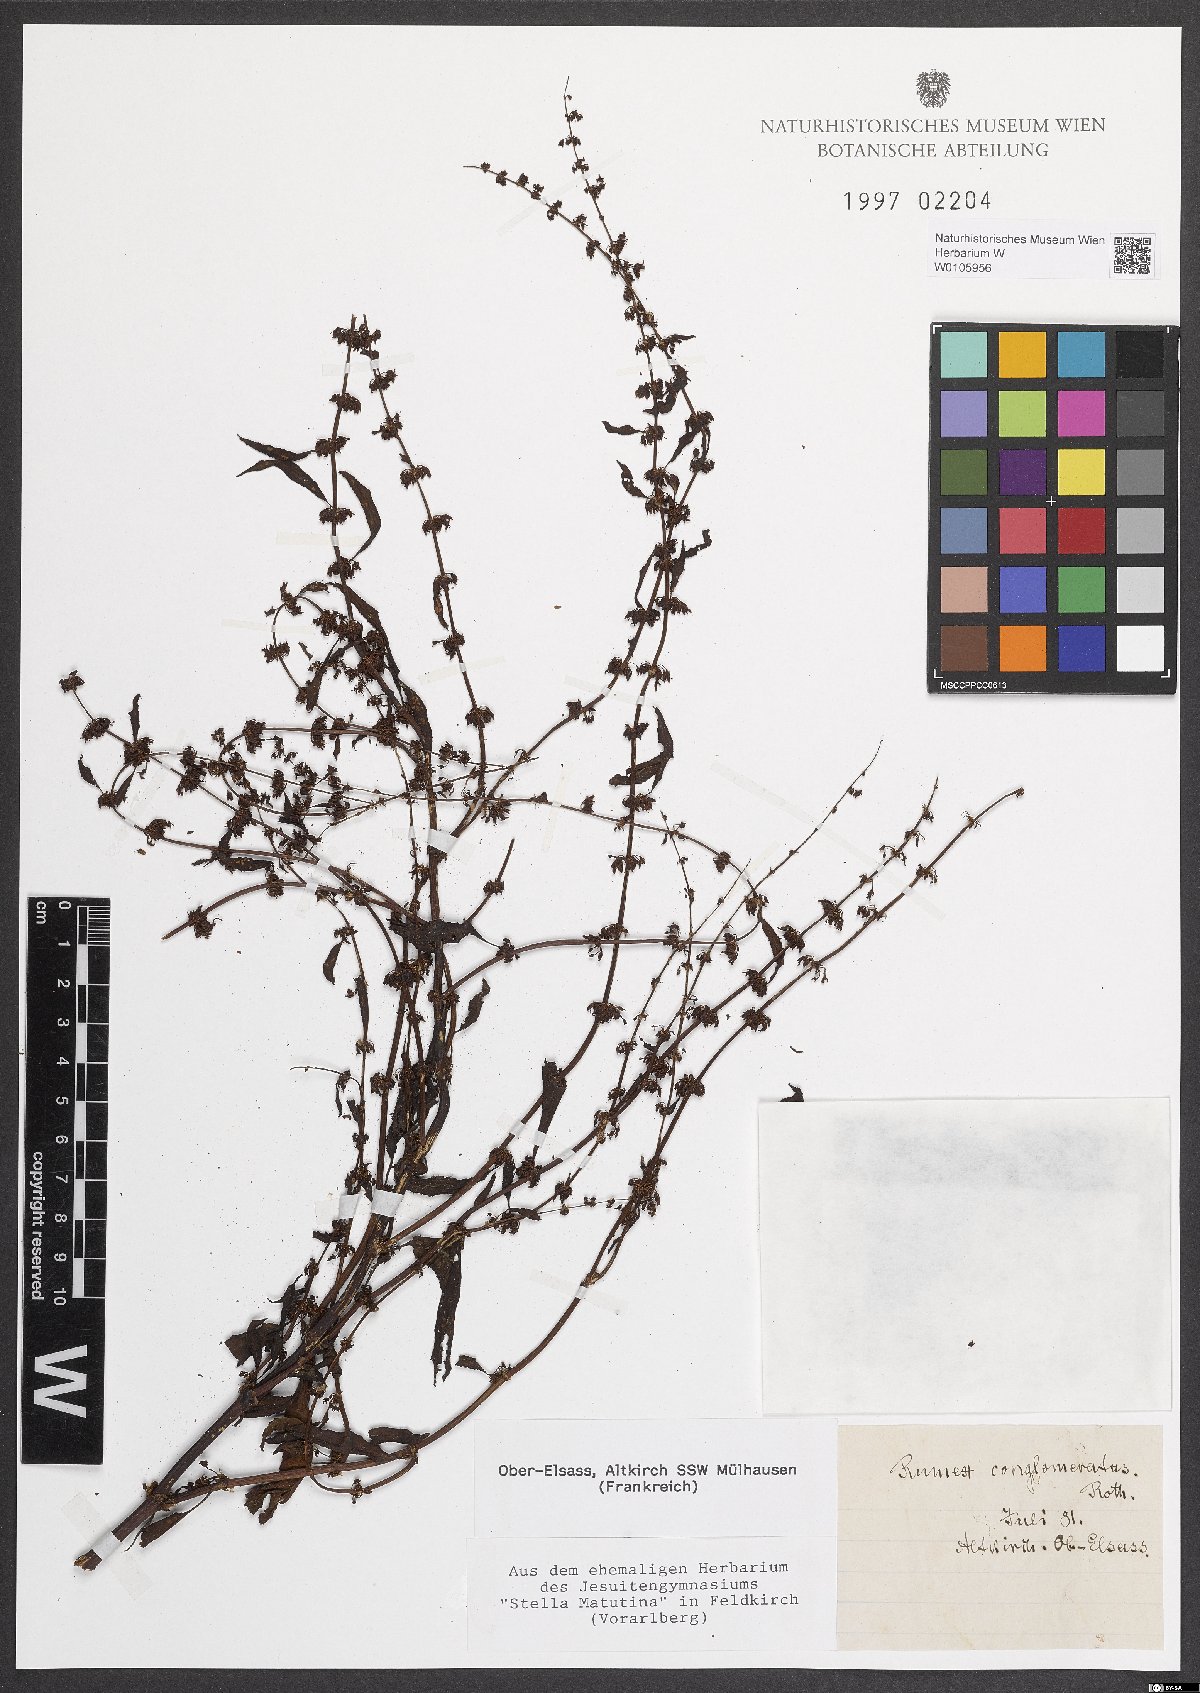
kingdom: Plantae
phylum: Tracheophyta
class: Magnoliopsida
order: Caryophyllales
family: Polygonaceae
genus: Rumex
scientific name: Rumex conglomeratus
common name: Clustered dock
